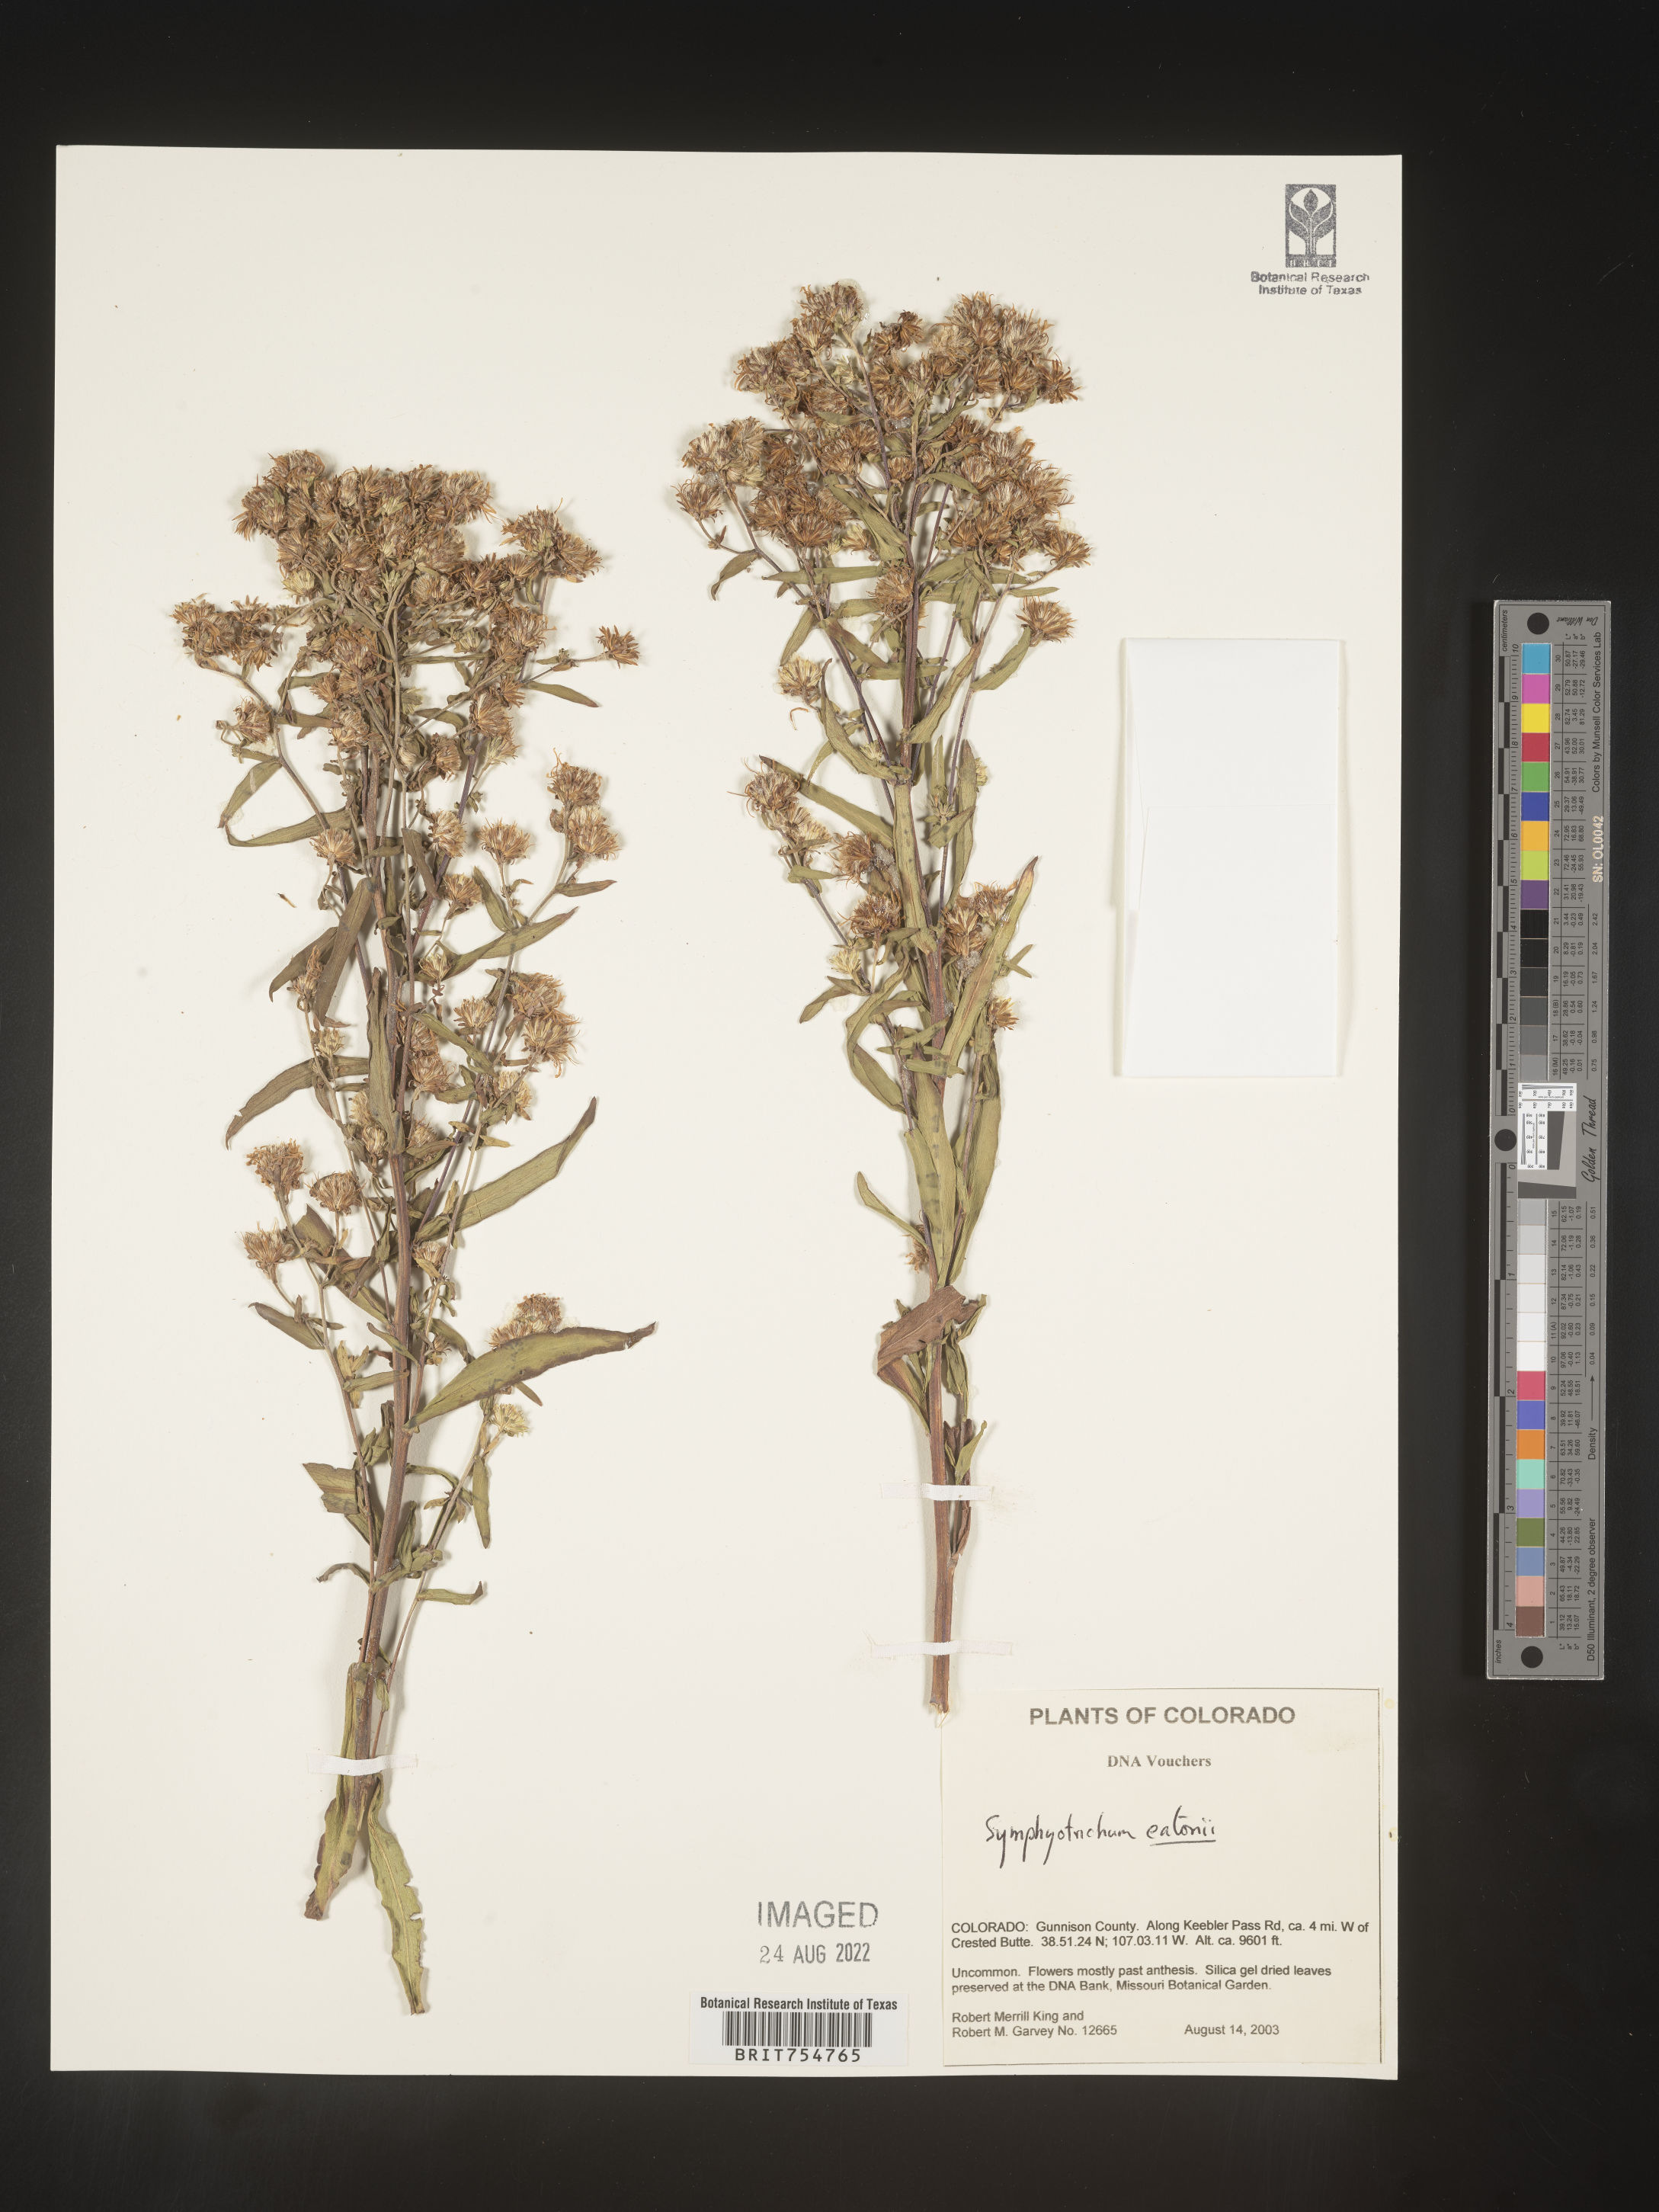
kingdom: Plantae
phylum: Tracheophyta
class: Magnoliopsida
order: Asterales
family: Asteraceae
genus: Symphyotrichum
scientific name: Symphyotrichum
